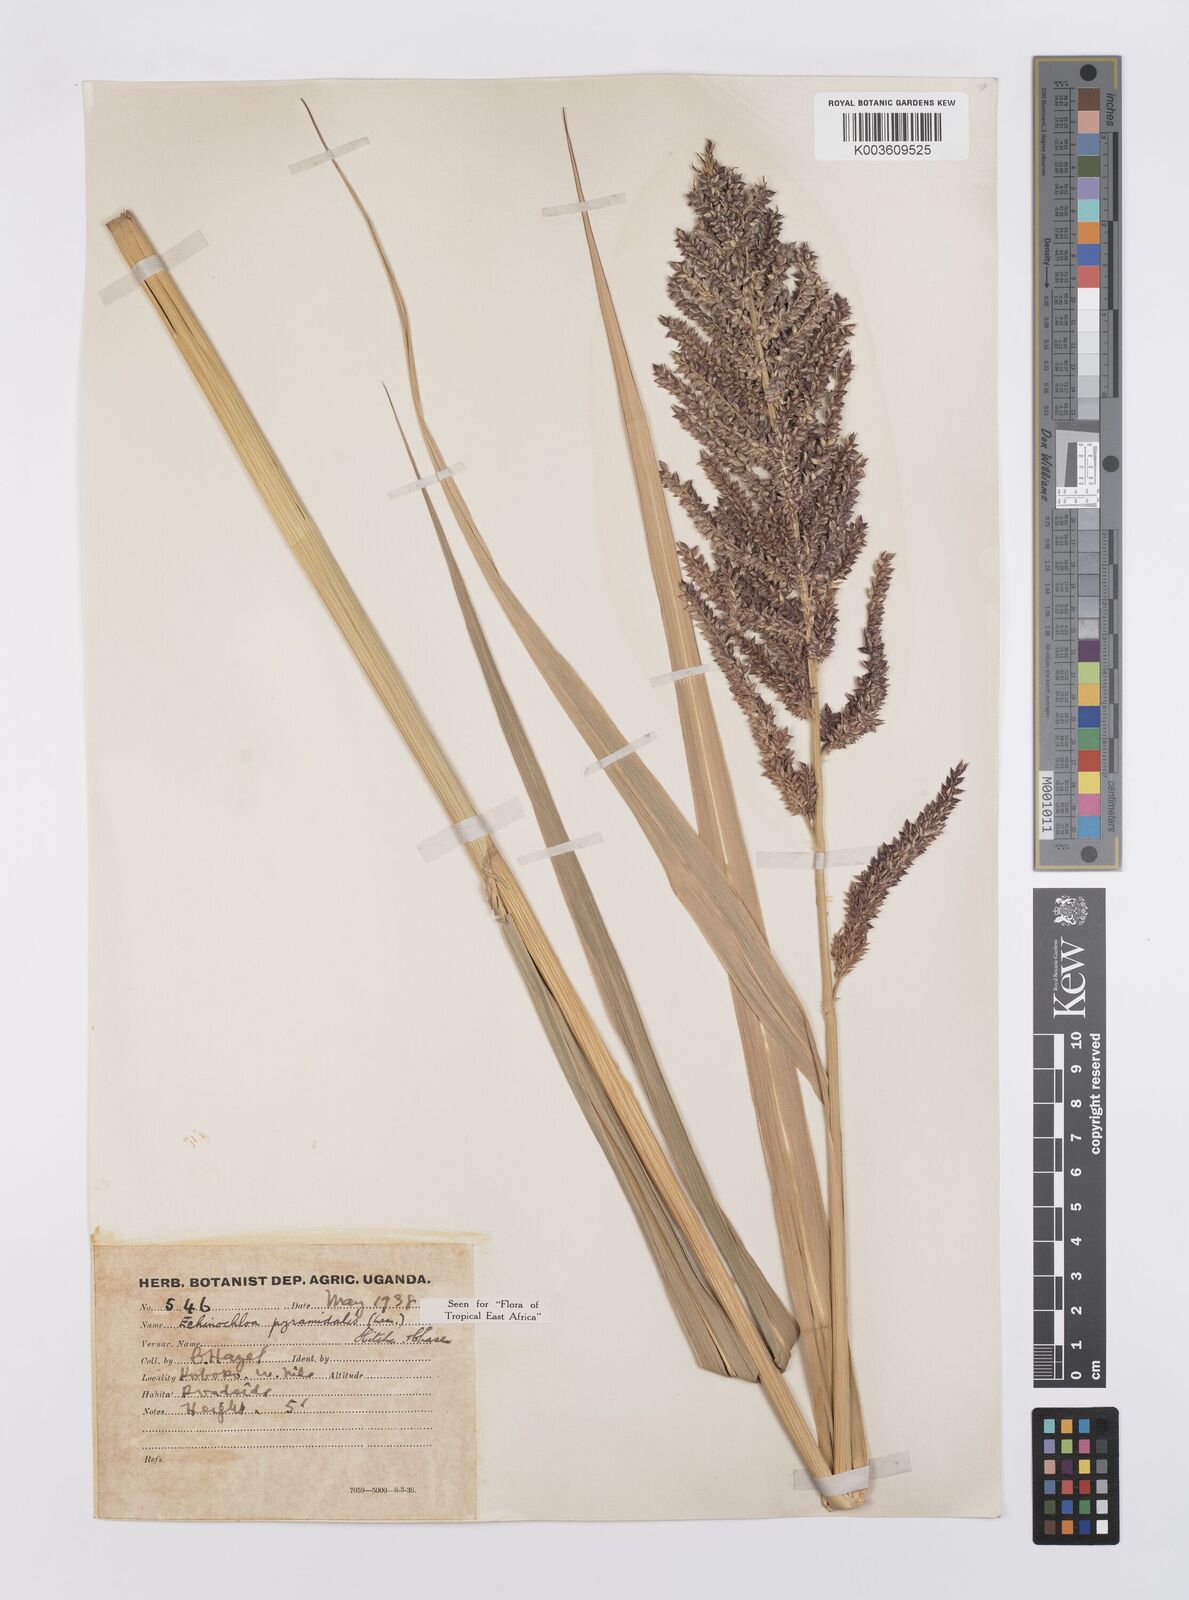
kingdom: Plantae
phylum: Tracheophyta
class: Liliopsida
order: Poales
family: Poaceae
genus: Echinochloa
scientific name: Echinochloa pyramidalis
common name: Antelope grass
